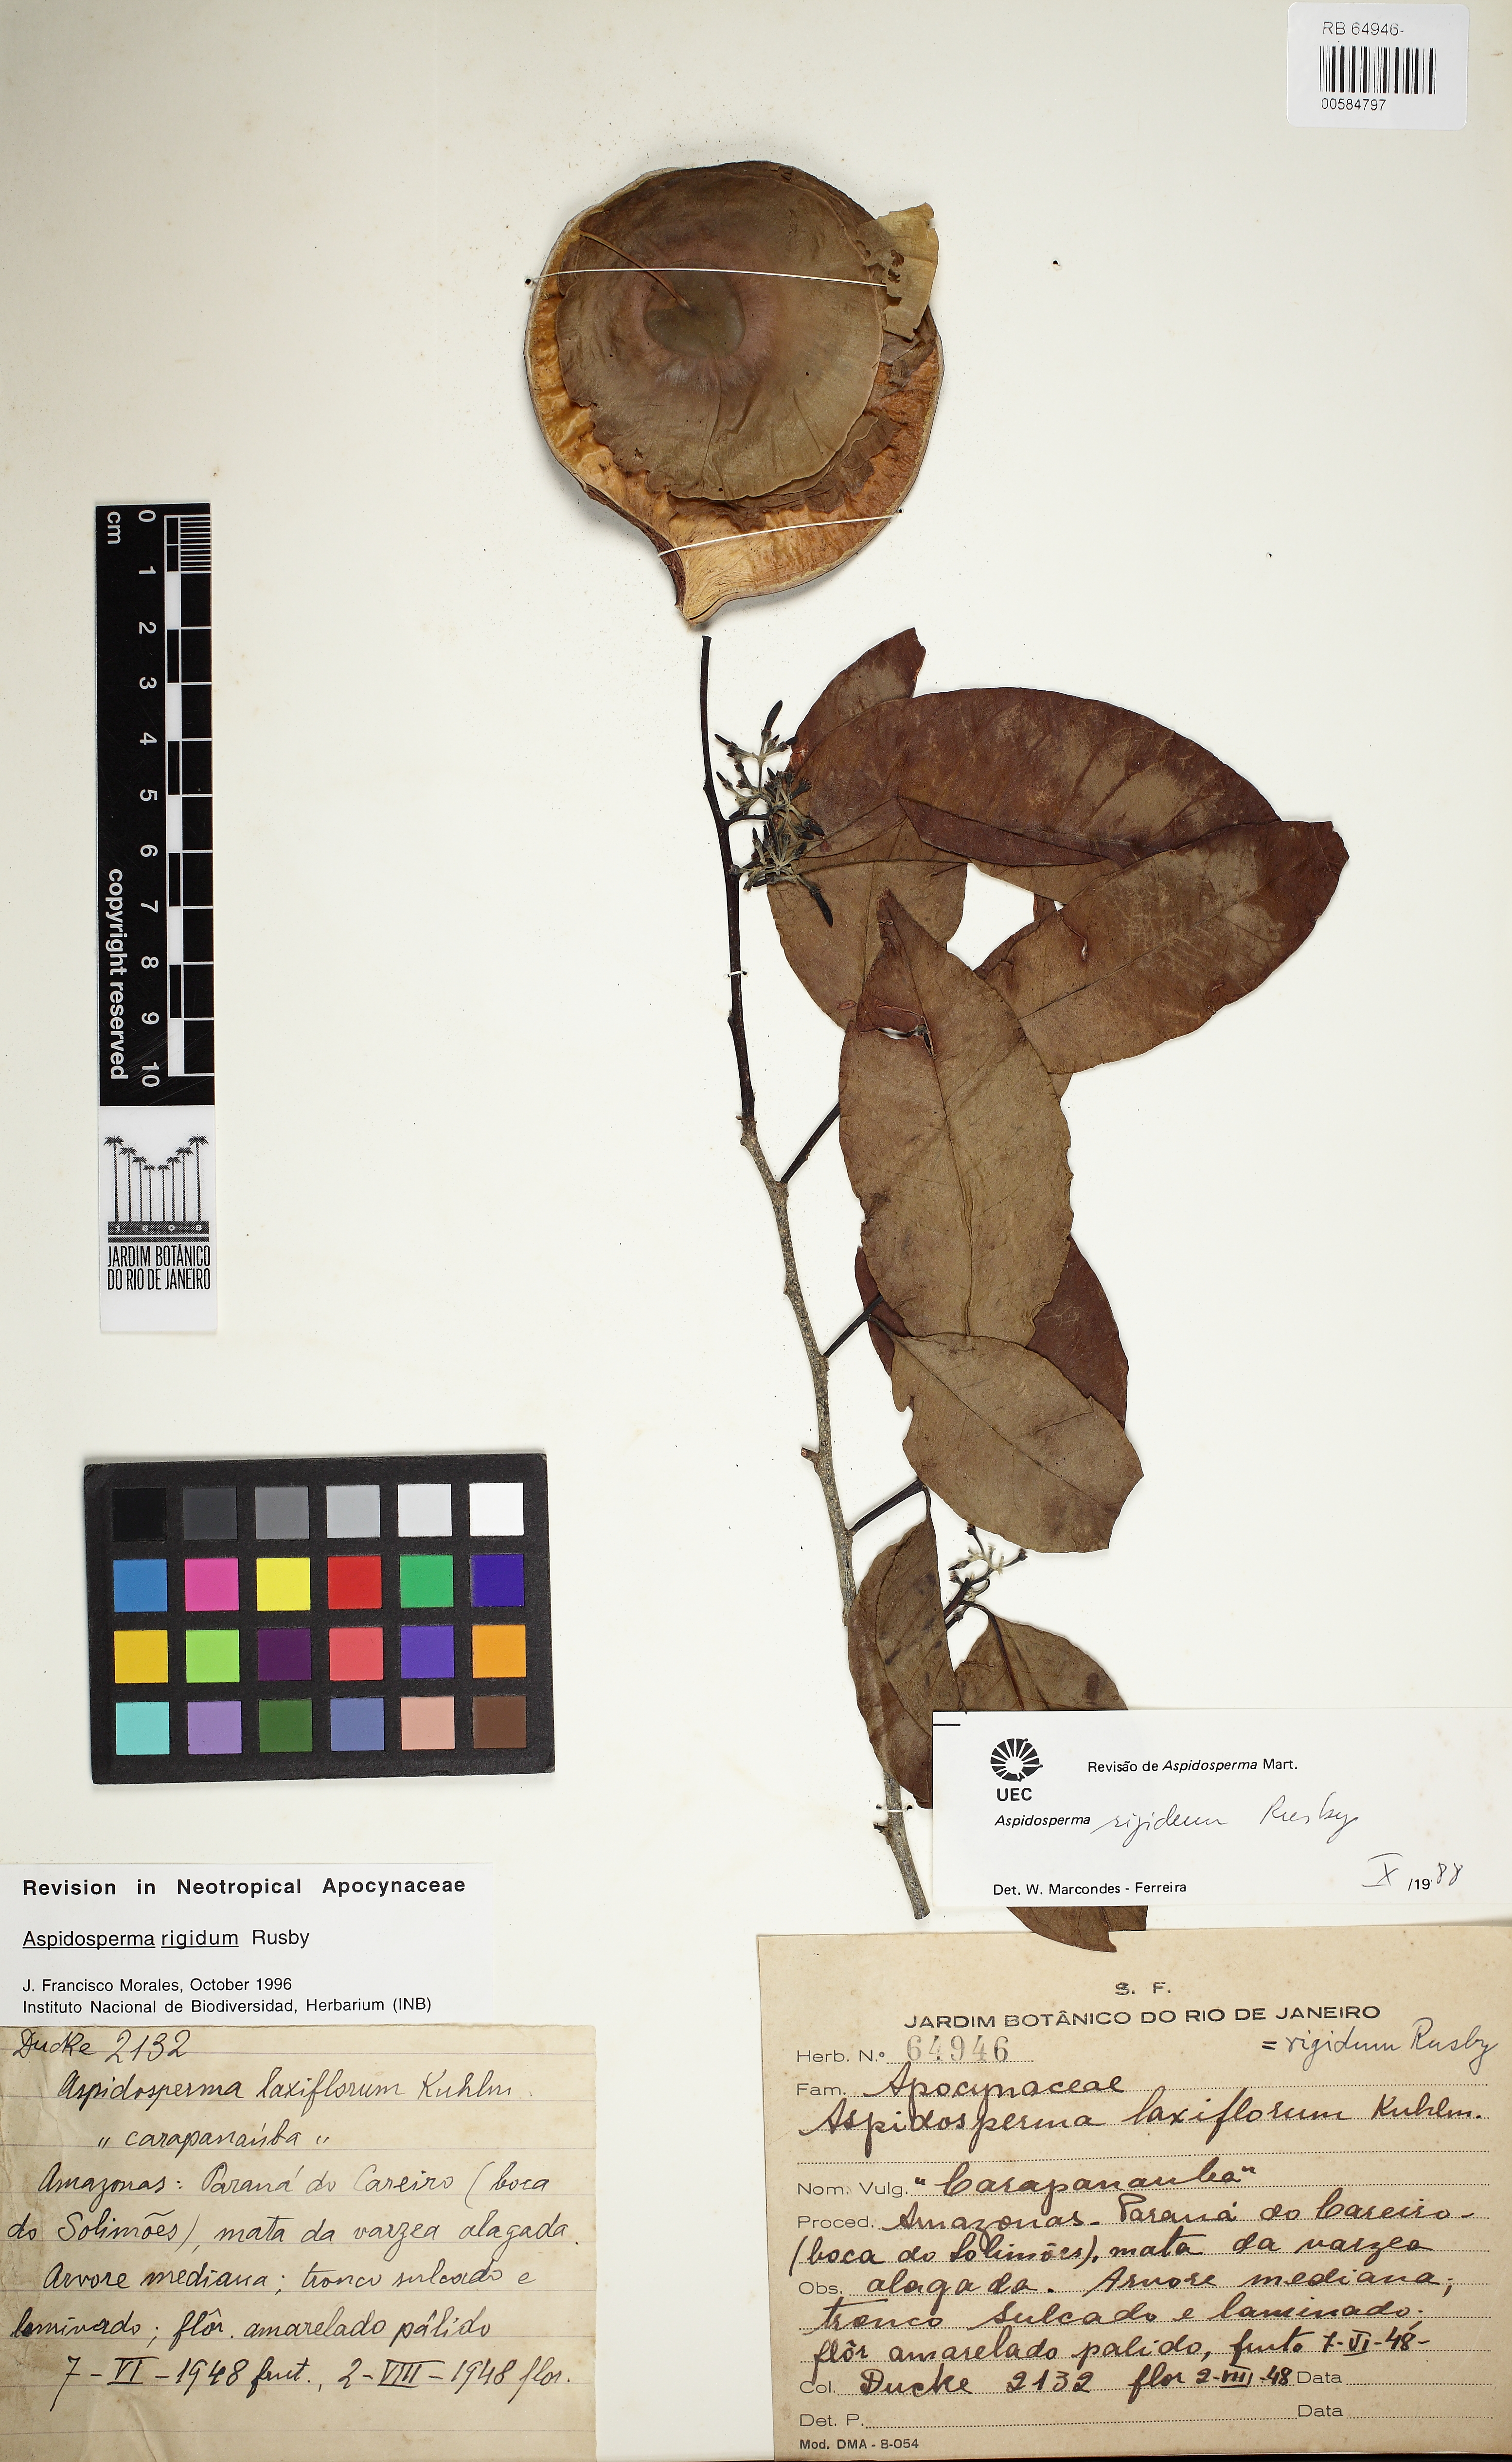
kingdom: Plantae
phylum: Tracheophyta
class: Magnoliopsida
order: Gentianales
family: Apocynaceae
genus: Aspidosperma
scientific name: Aspidosperma rigidum
